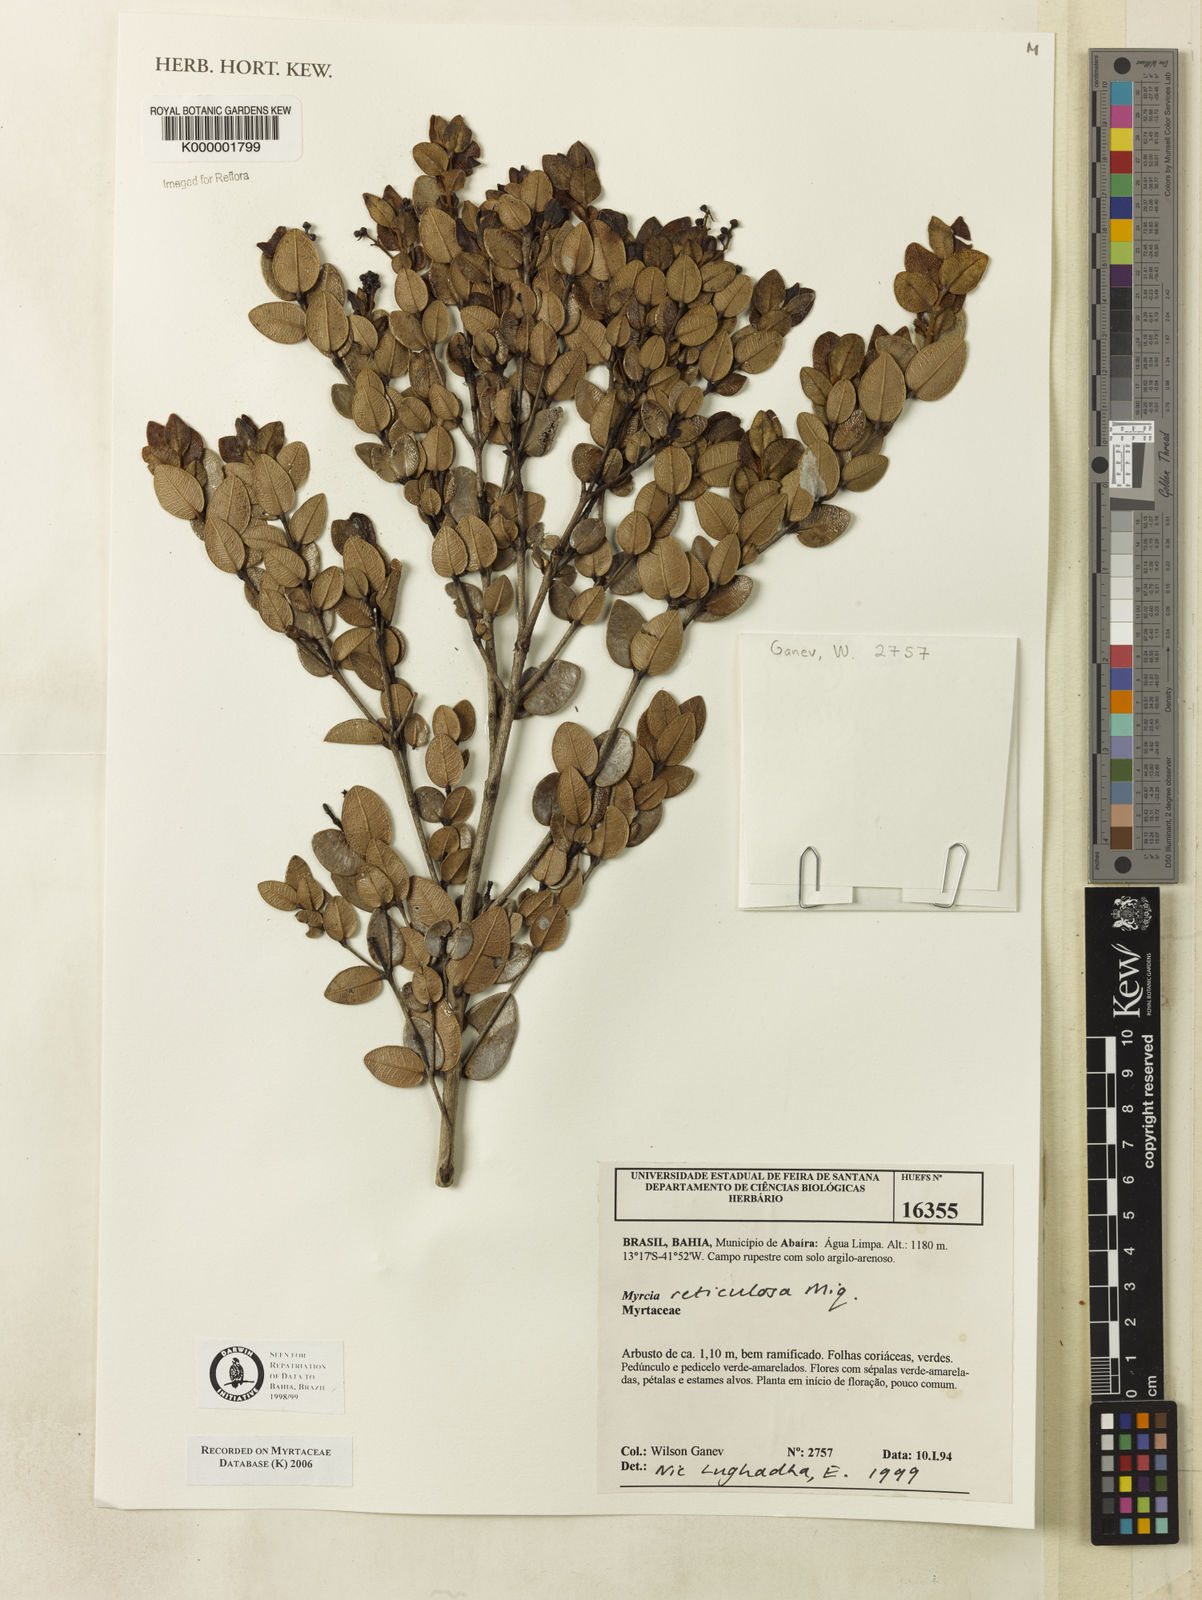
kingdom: Plantae
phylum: Tracheophyta
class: Magnoliopsida
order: Myrtales
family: Myrtaceae
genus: Myrcia
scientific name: Myrcia reticulosa
